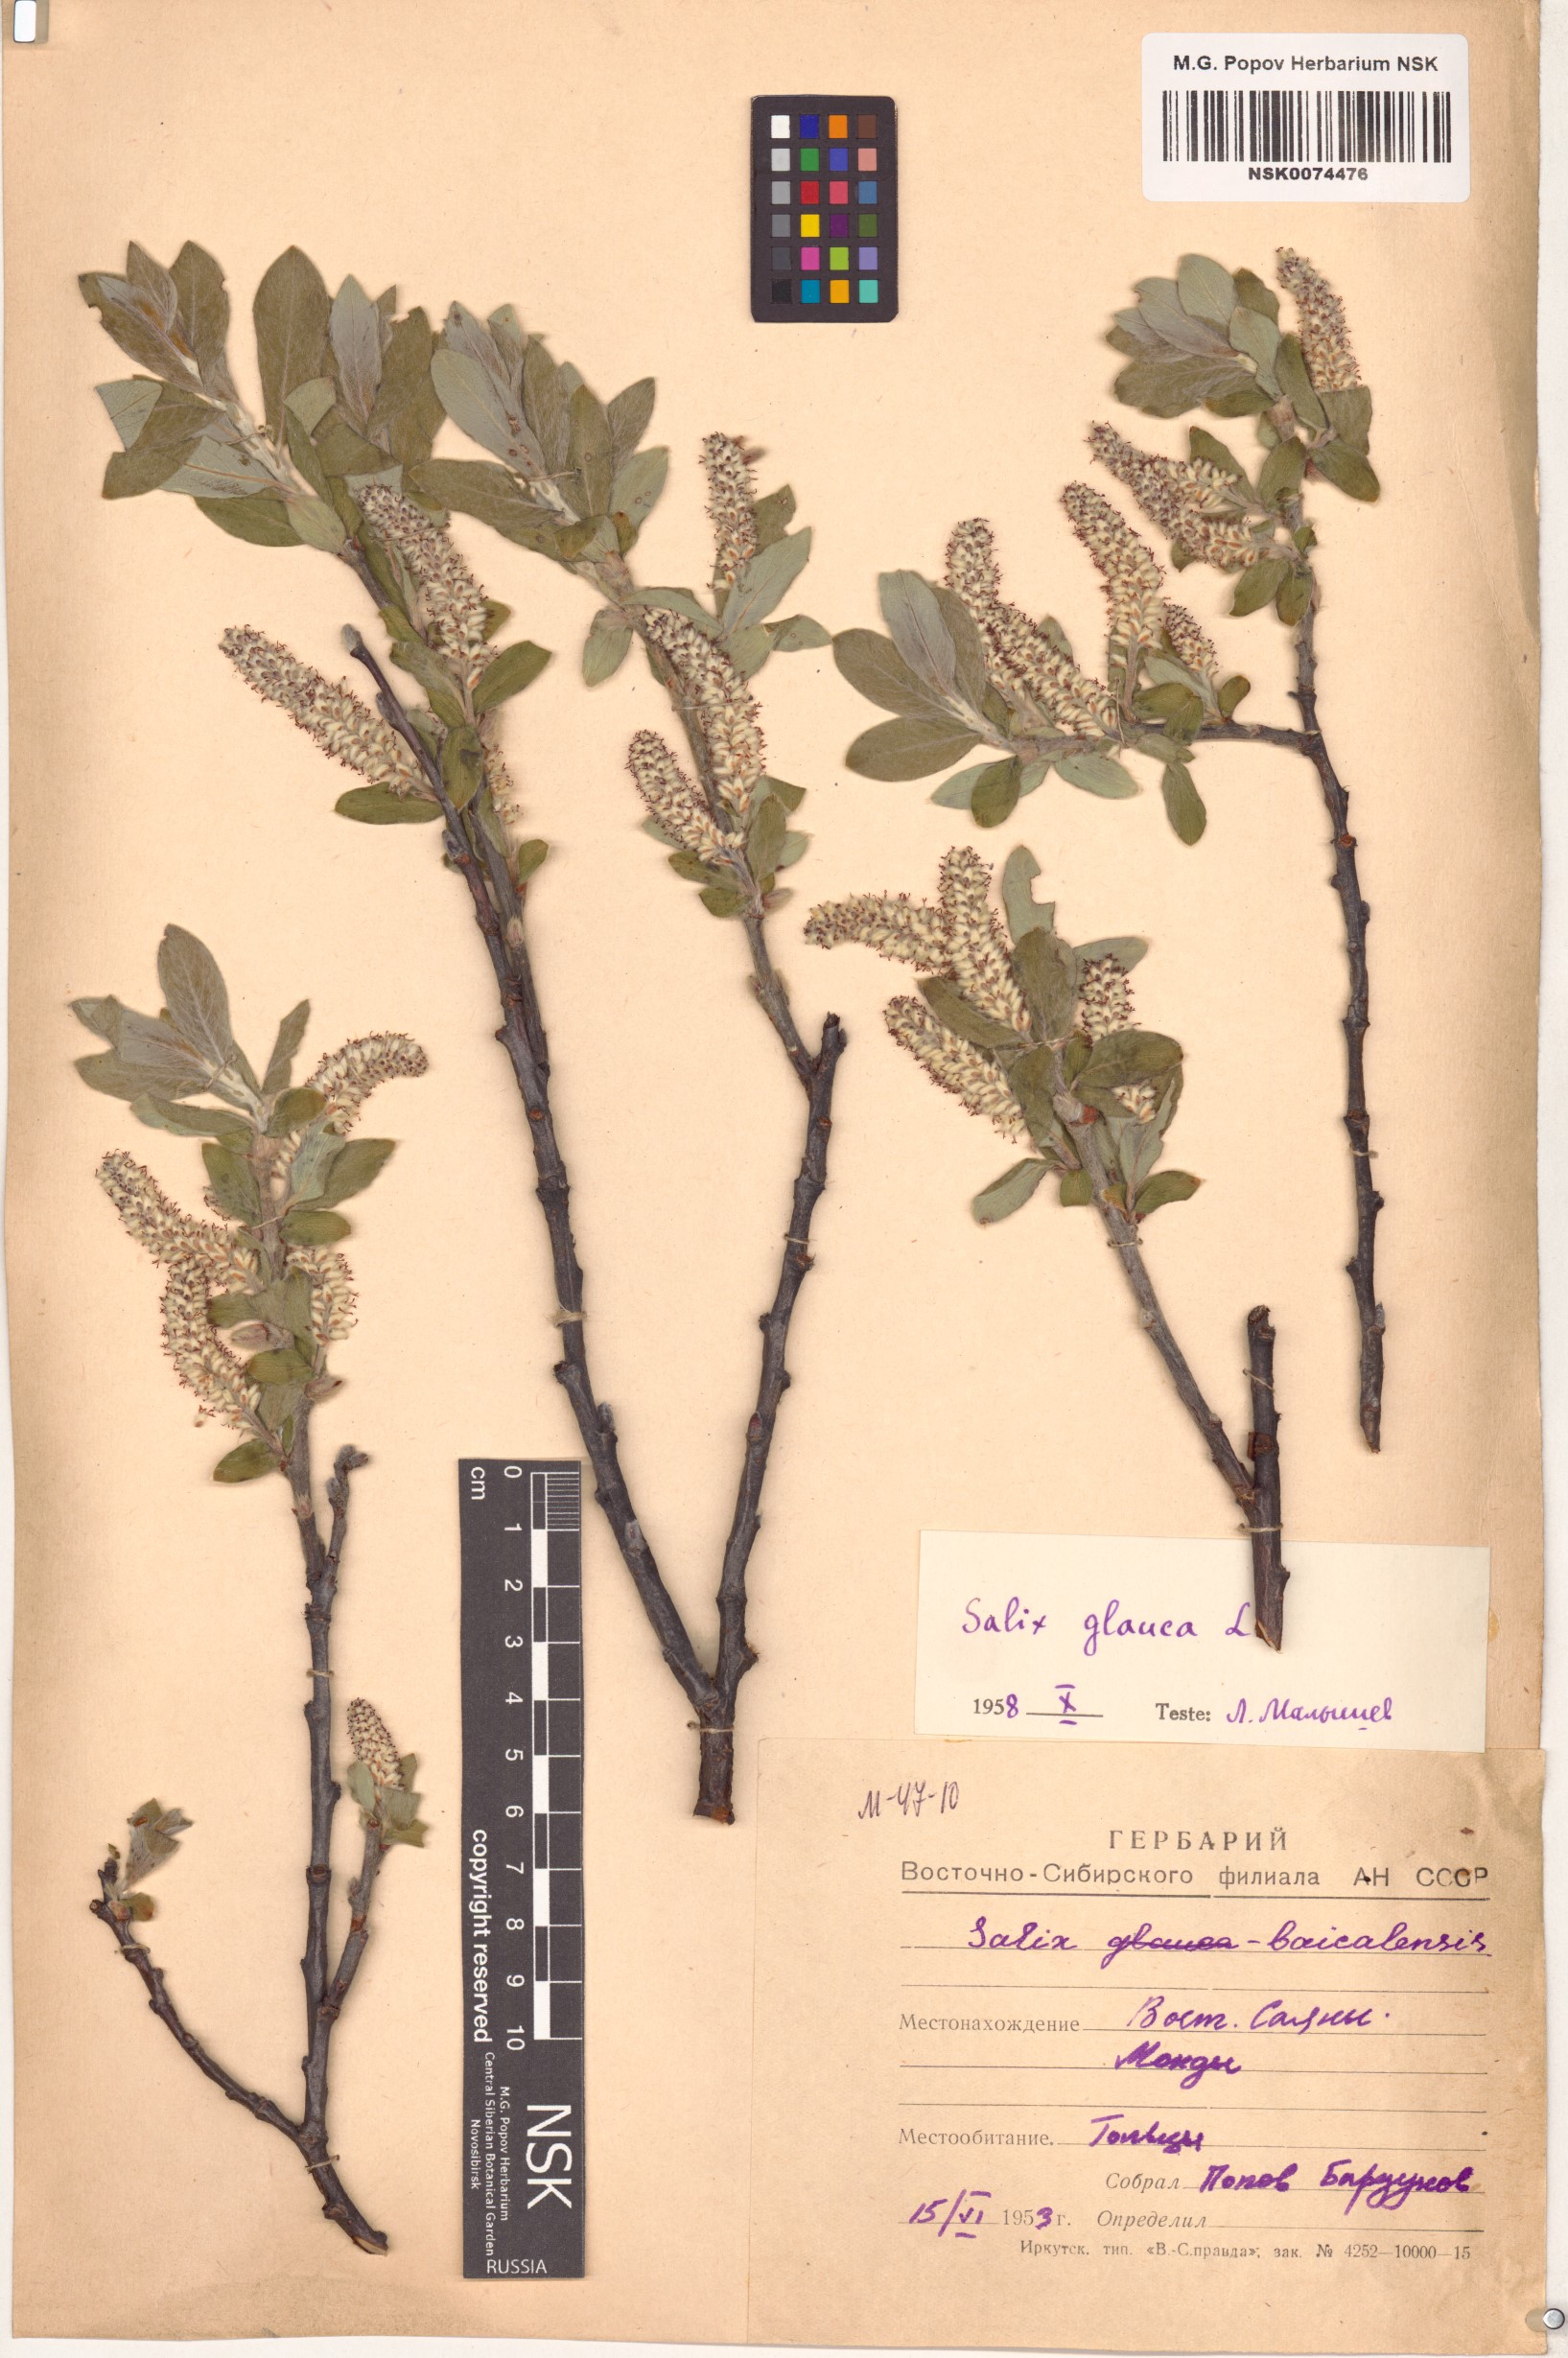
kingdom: Plantae
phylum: Tracheophyta
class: Magnoliopsida
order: Malpighiales
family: Salicaceae
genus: Salix
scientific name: Salix glauca
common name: Glaucous willow
